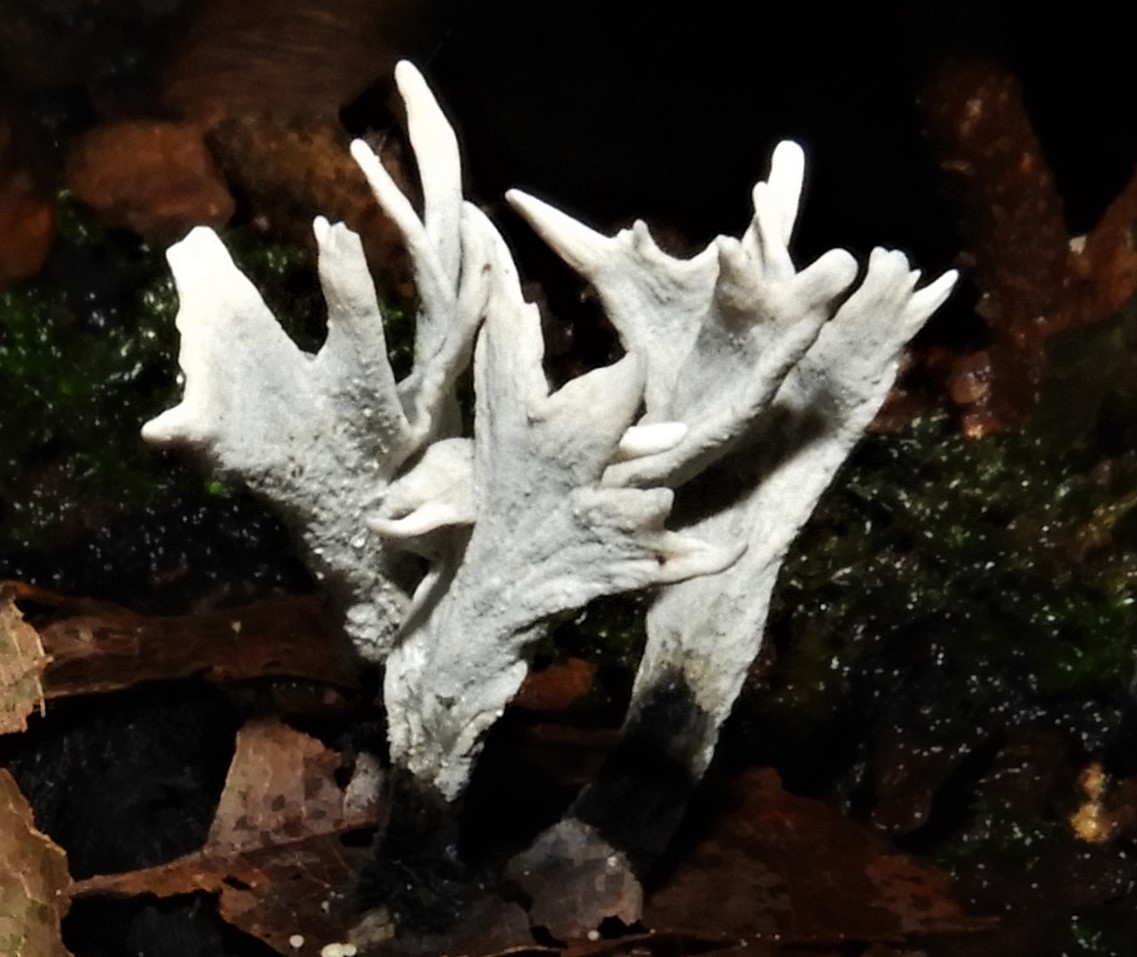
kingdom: Fungi
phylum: Ascomycota
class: Sordariomycetes
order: Xylariales
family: Xylariaceae
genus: Xylaria
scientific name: Xylaria hypoxylon
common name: grenet stødsvamp
